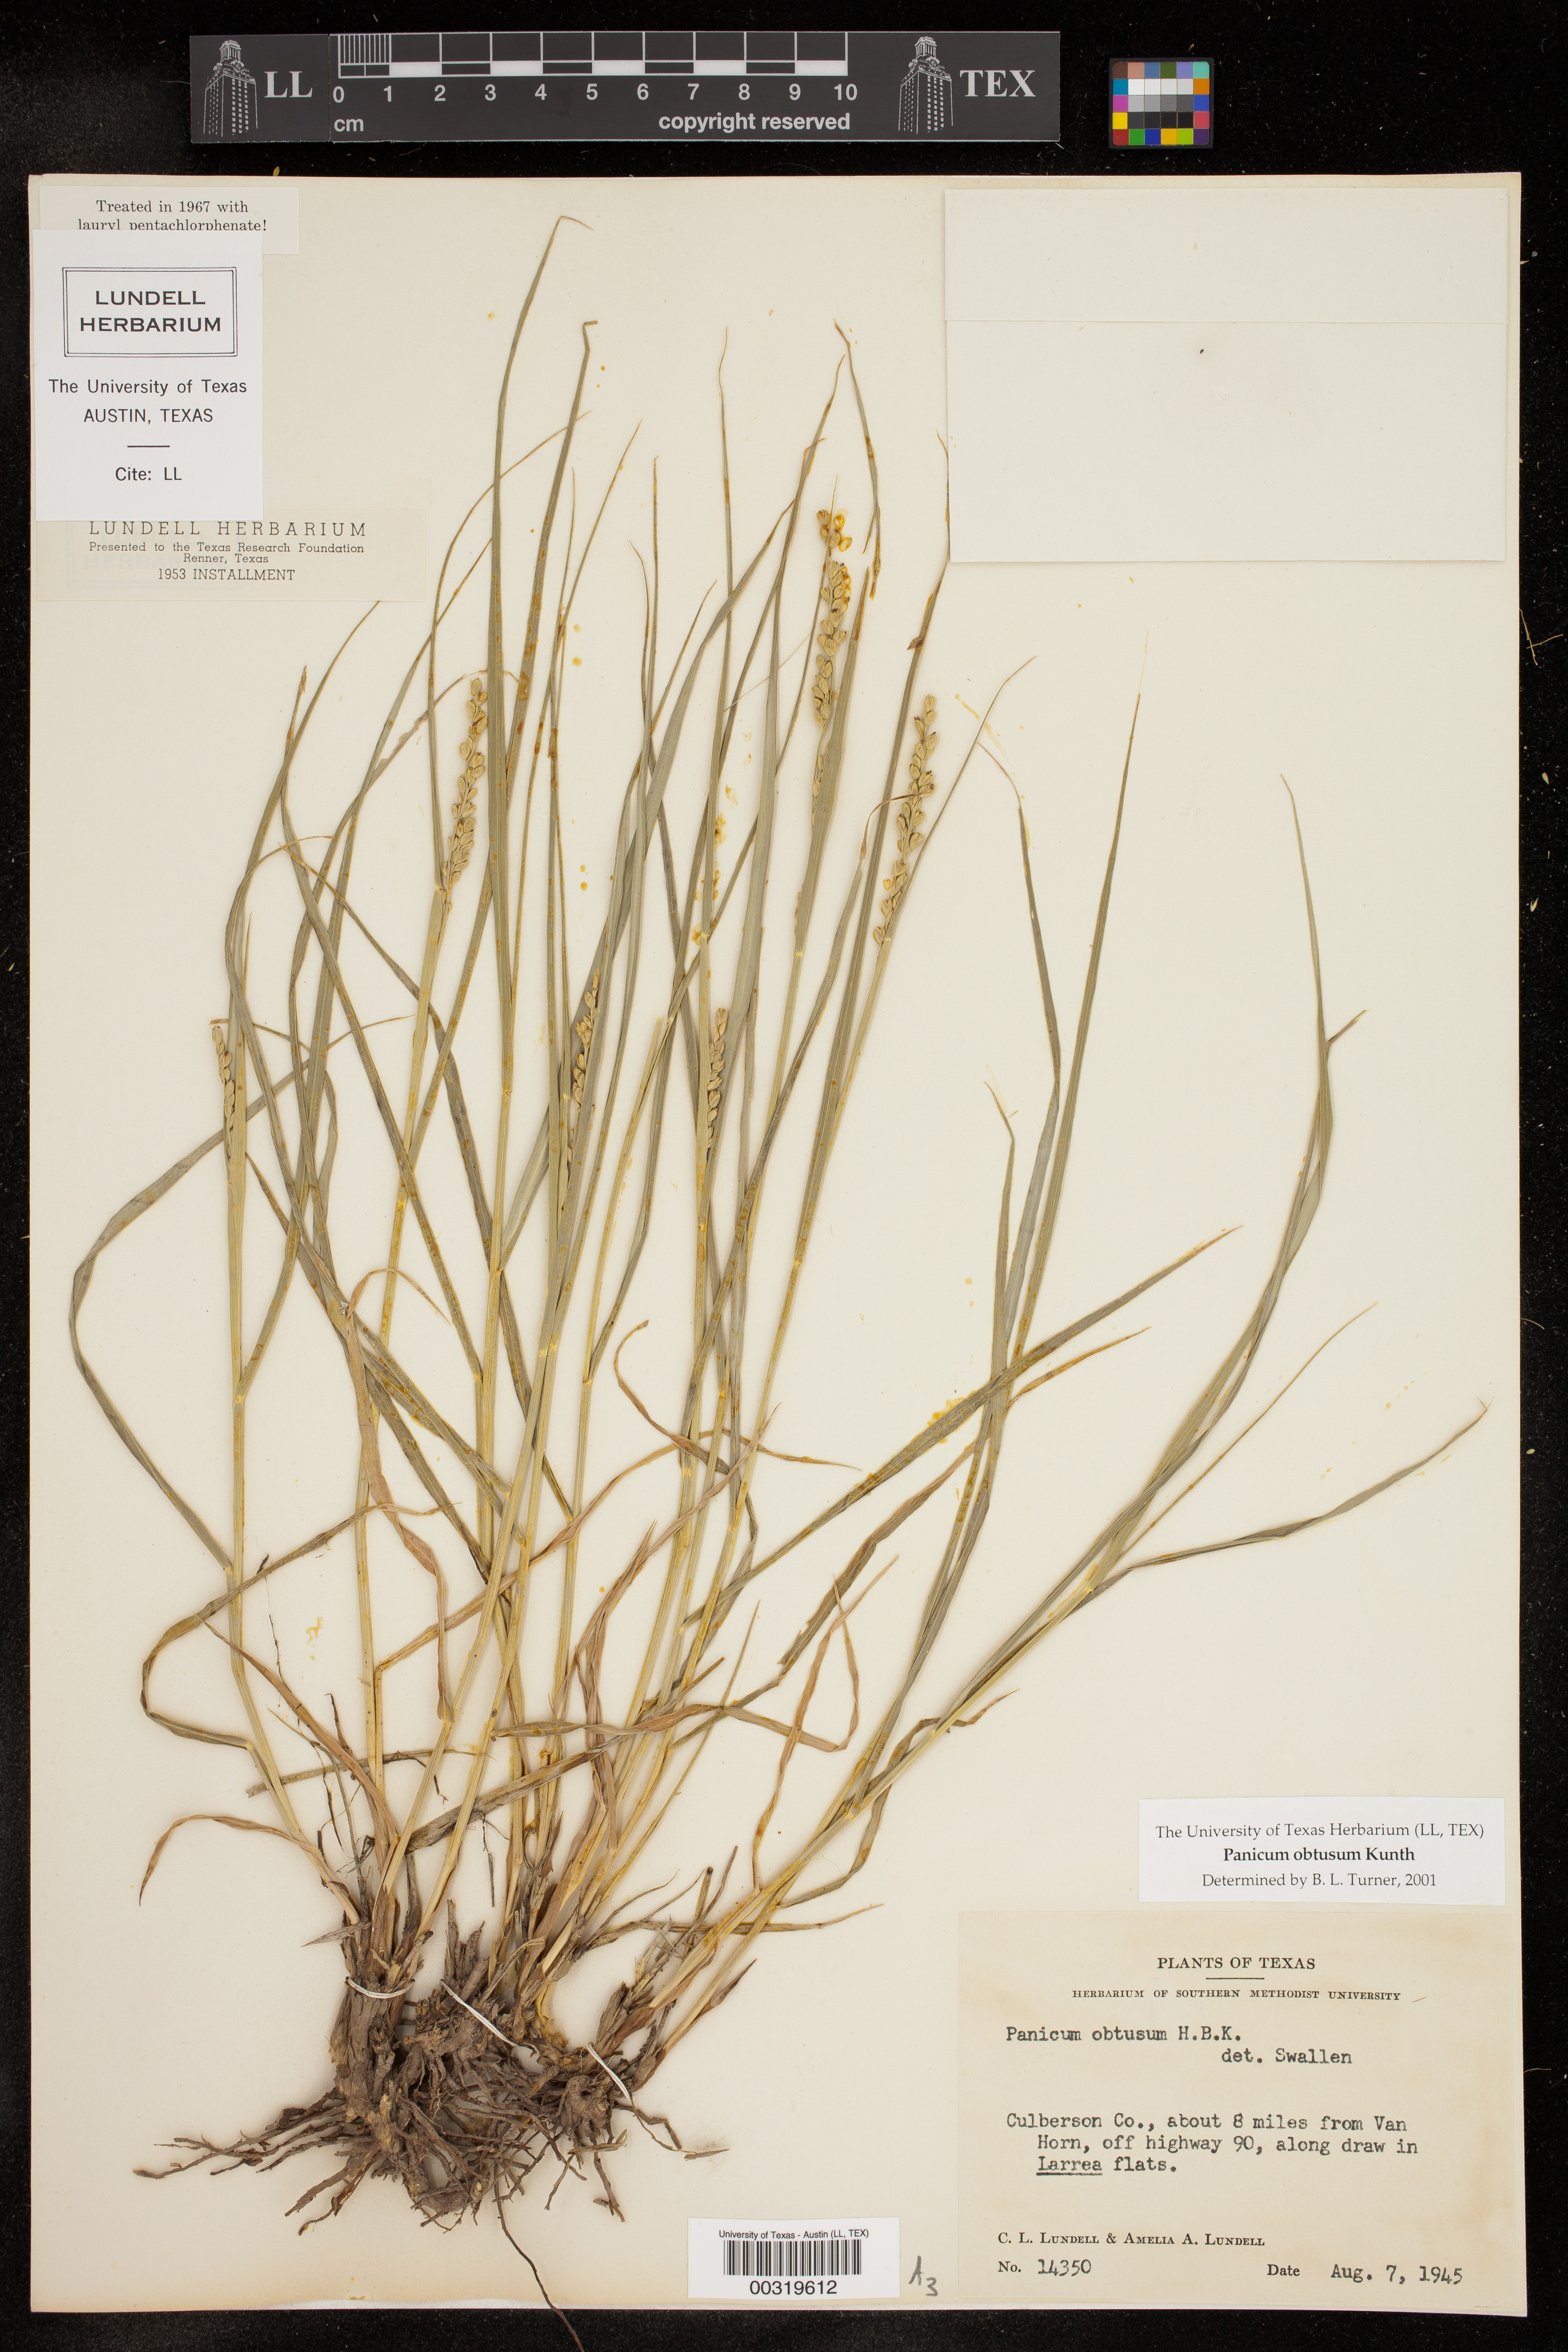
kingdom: Plantae
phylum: Tracheophyta
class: Liliopsida
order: Poales
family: Poaceae
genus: Hopia
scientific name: Hopia obtusa
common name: Vine-mesquite
